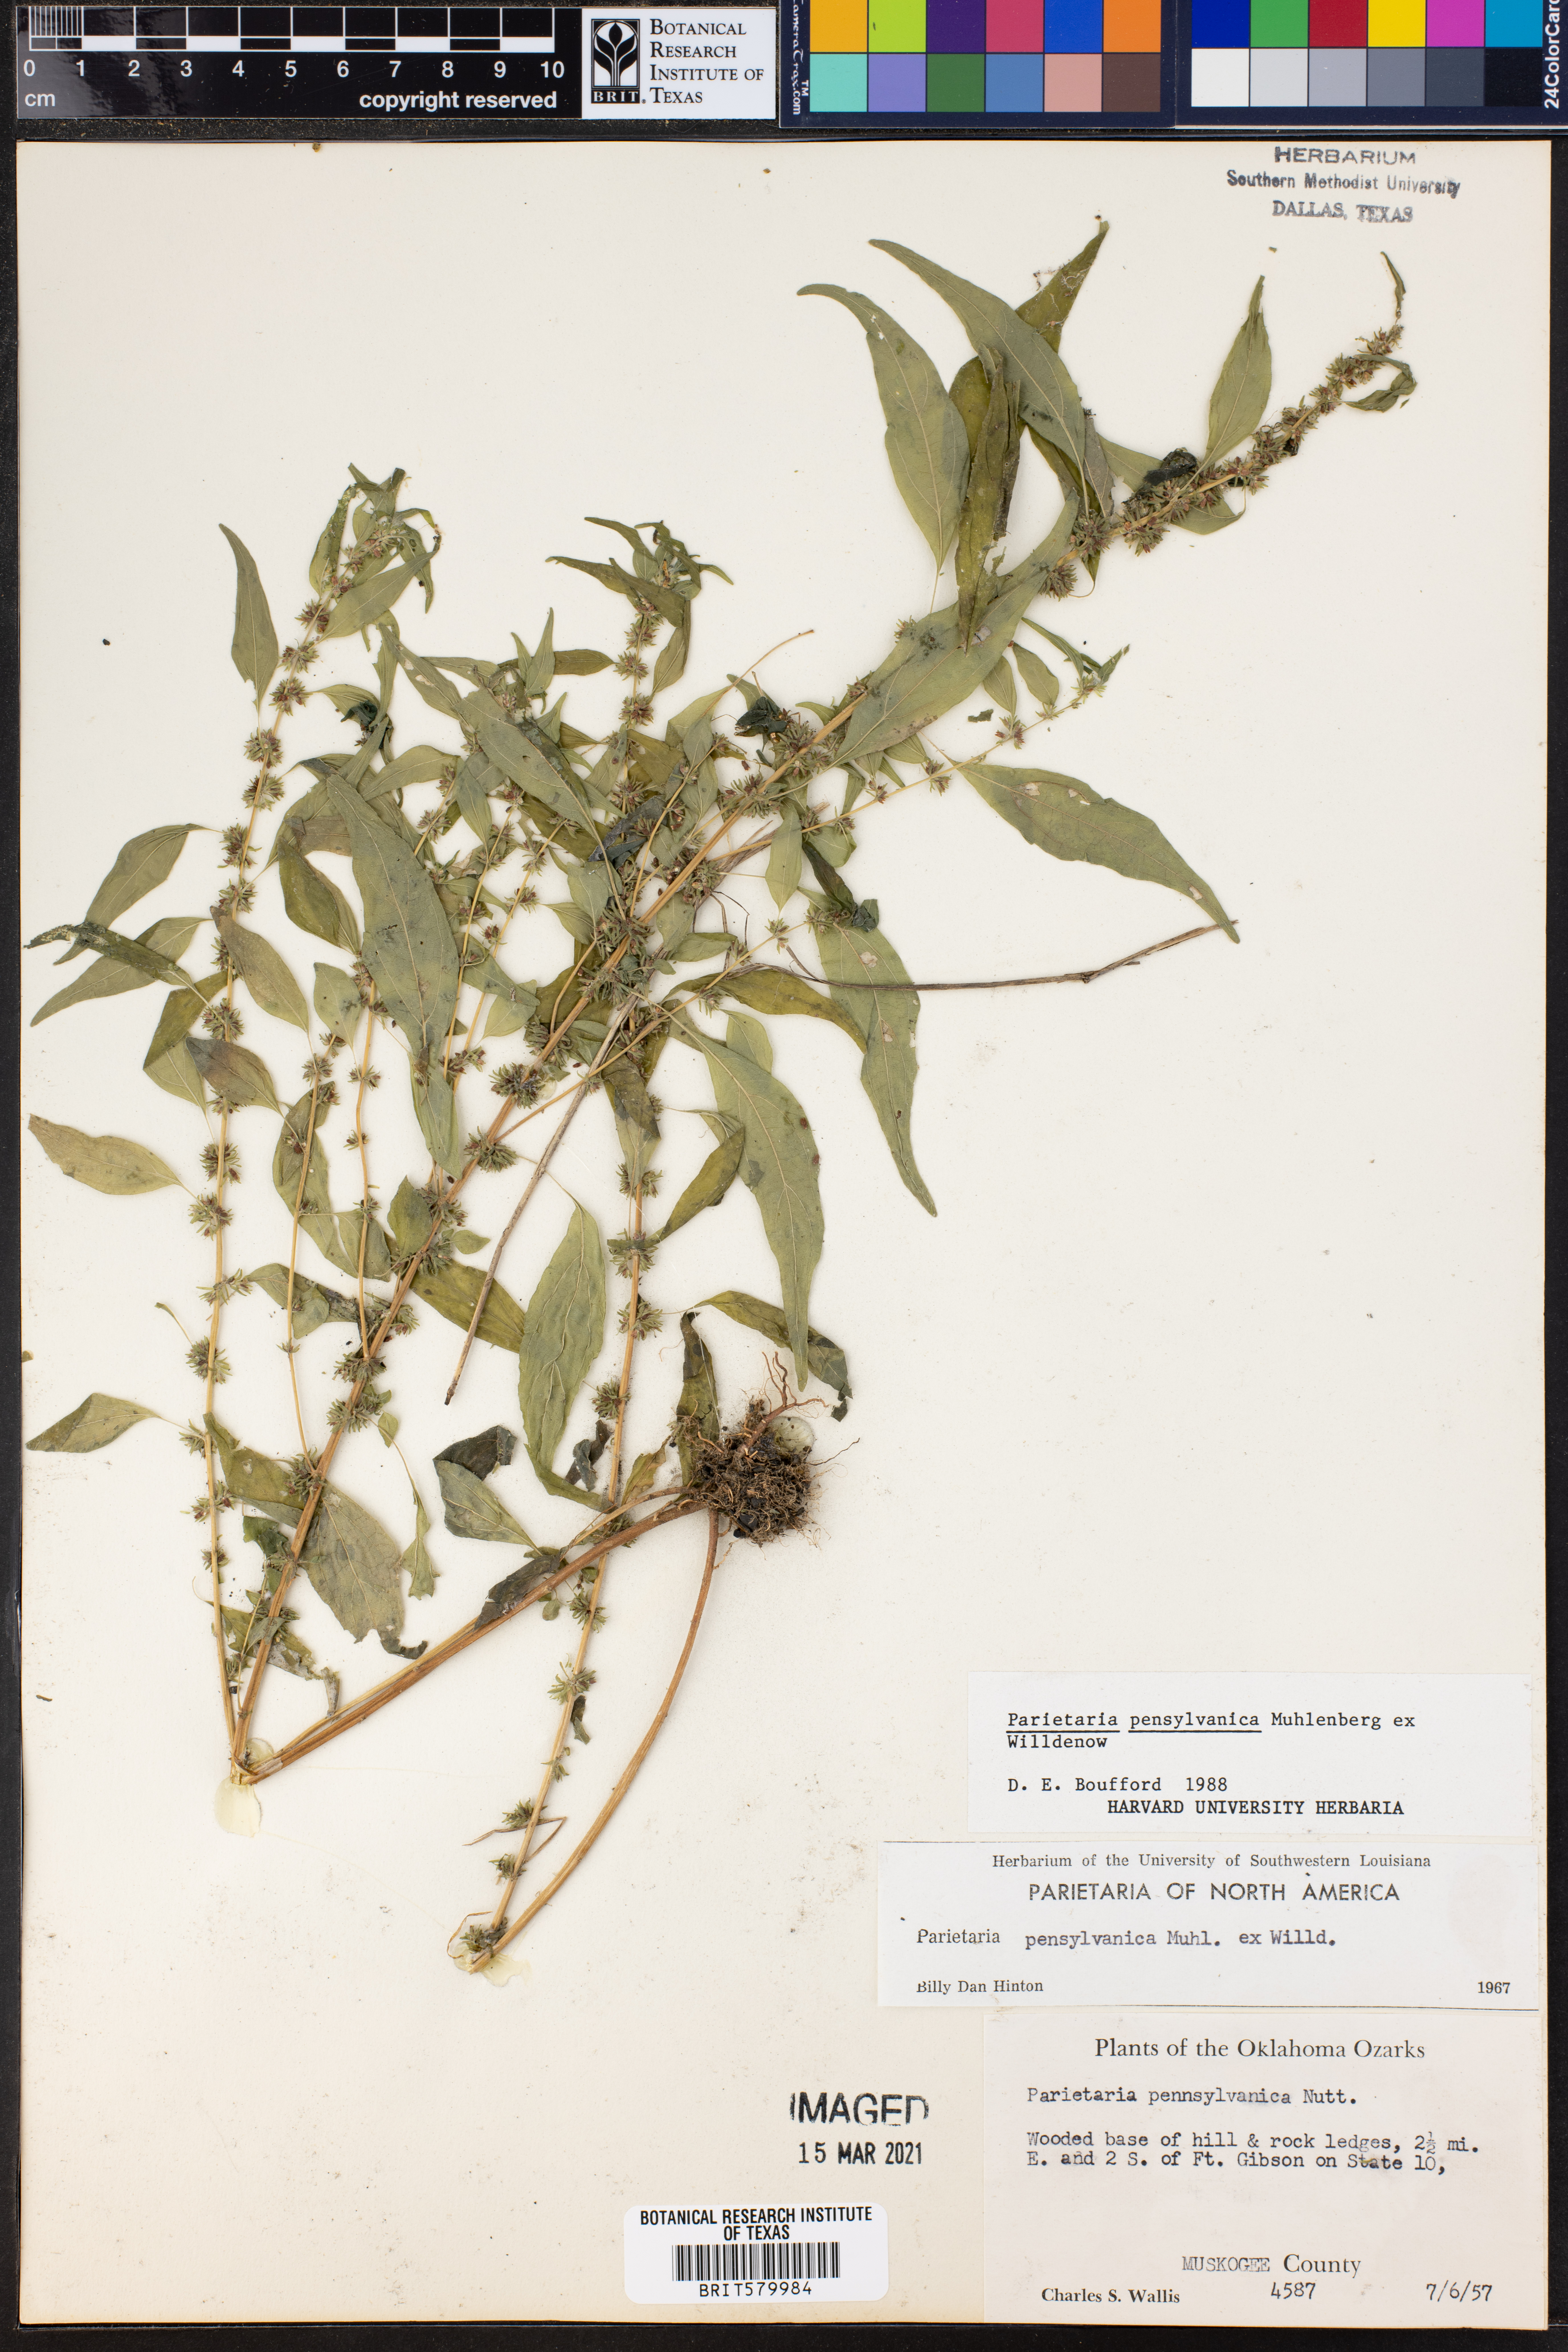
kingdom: Plantae
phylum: Tracheophyta
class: Magnoliopsida
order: Rosales
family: Urticaceae
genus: Parietaria
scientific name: Parietaria pensylvanica
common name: Pennsylvania pellitory
